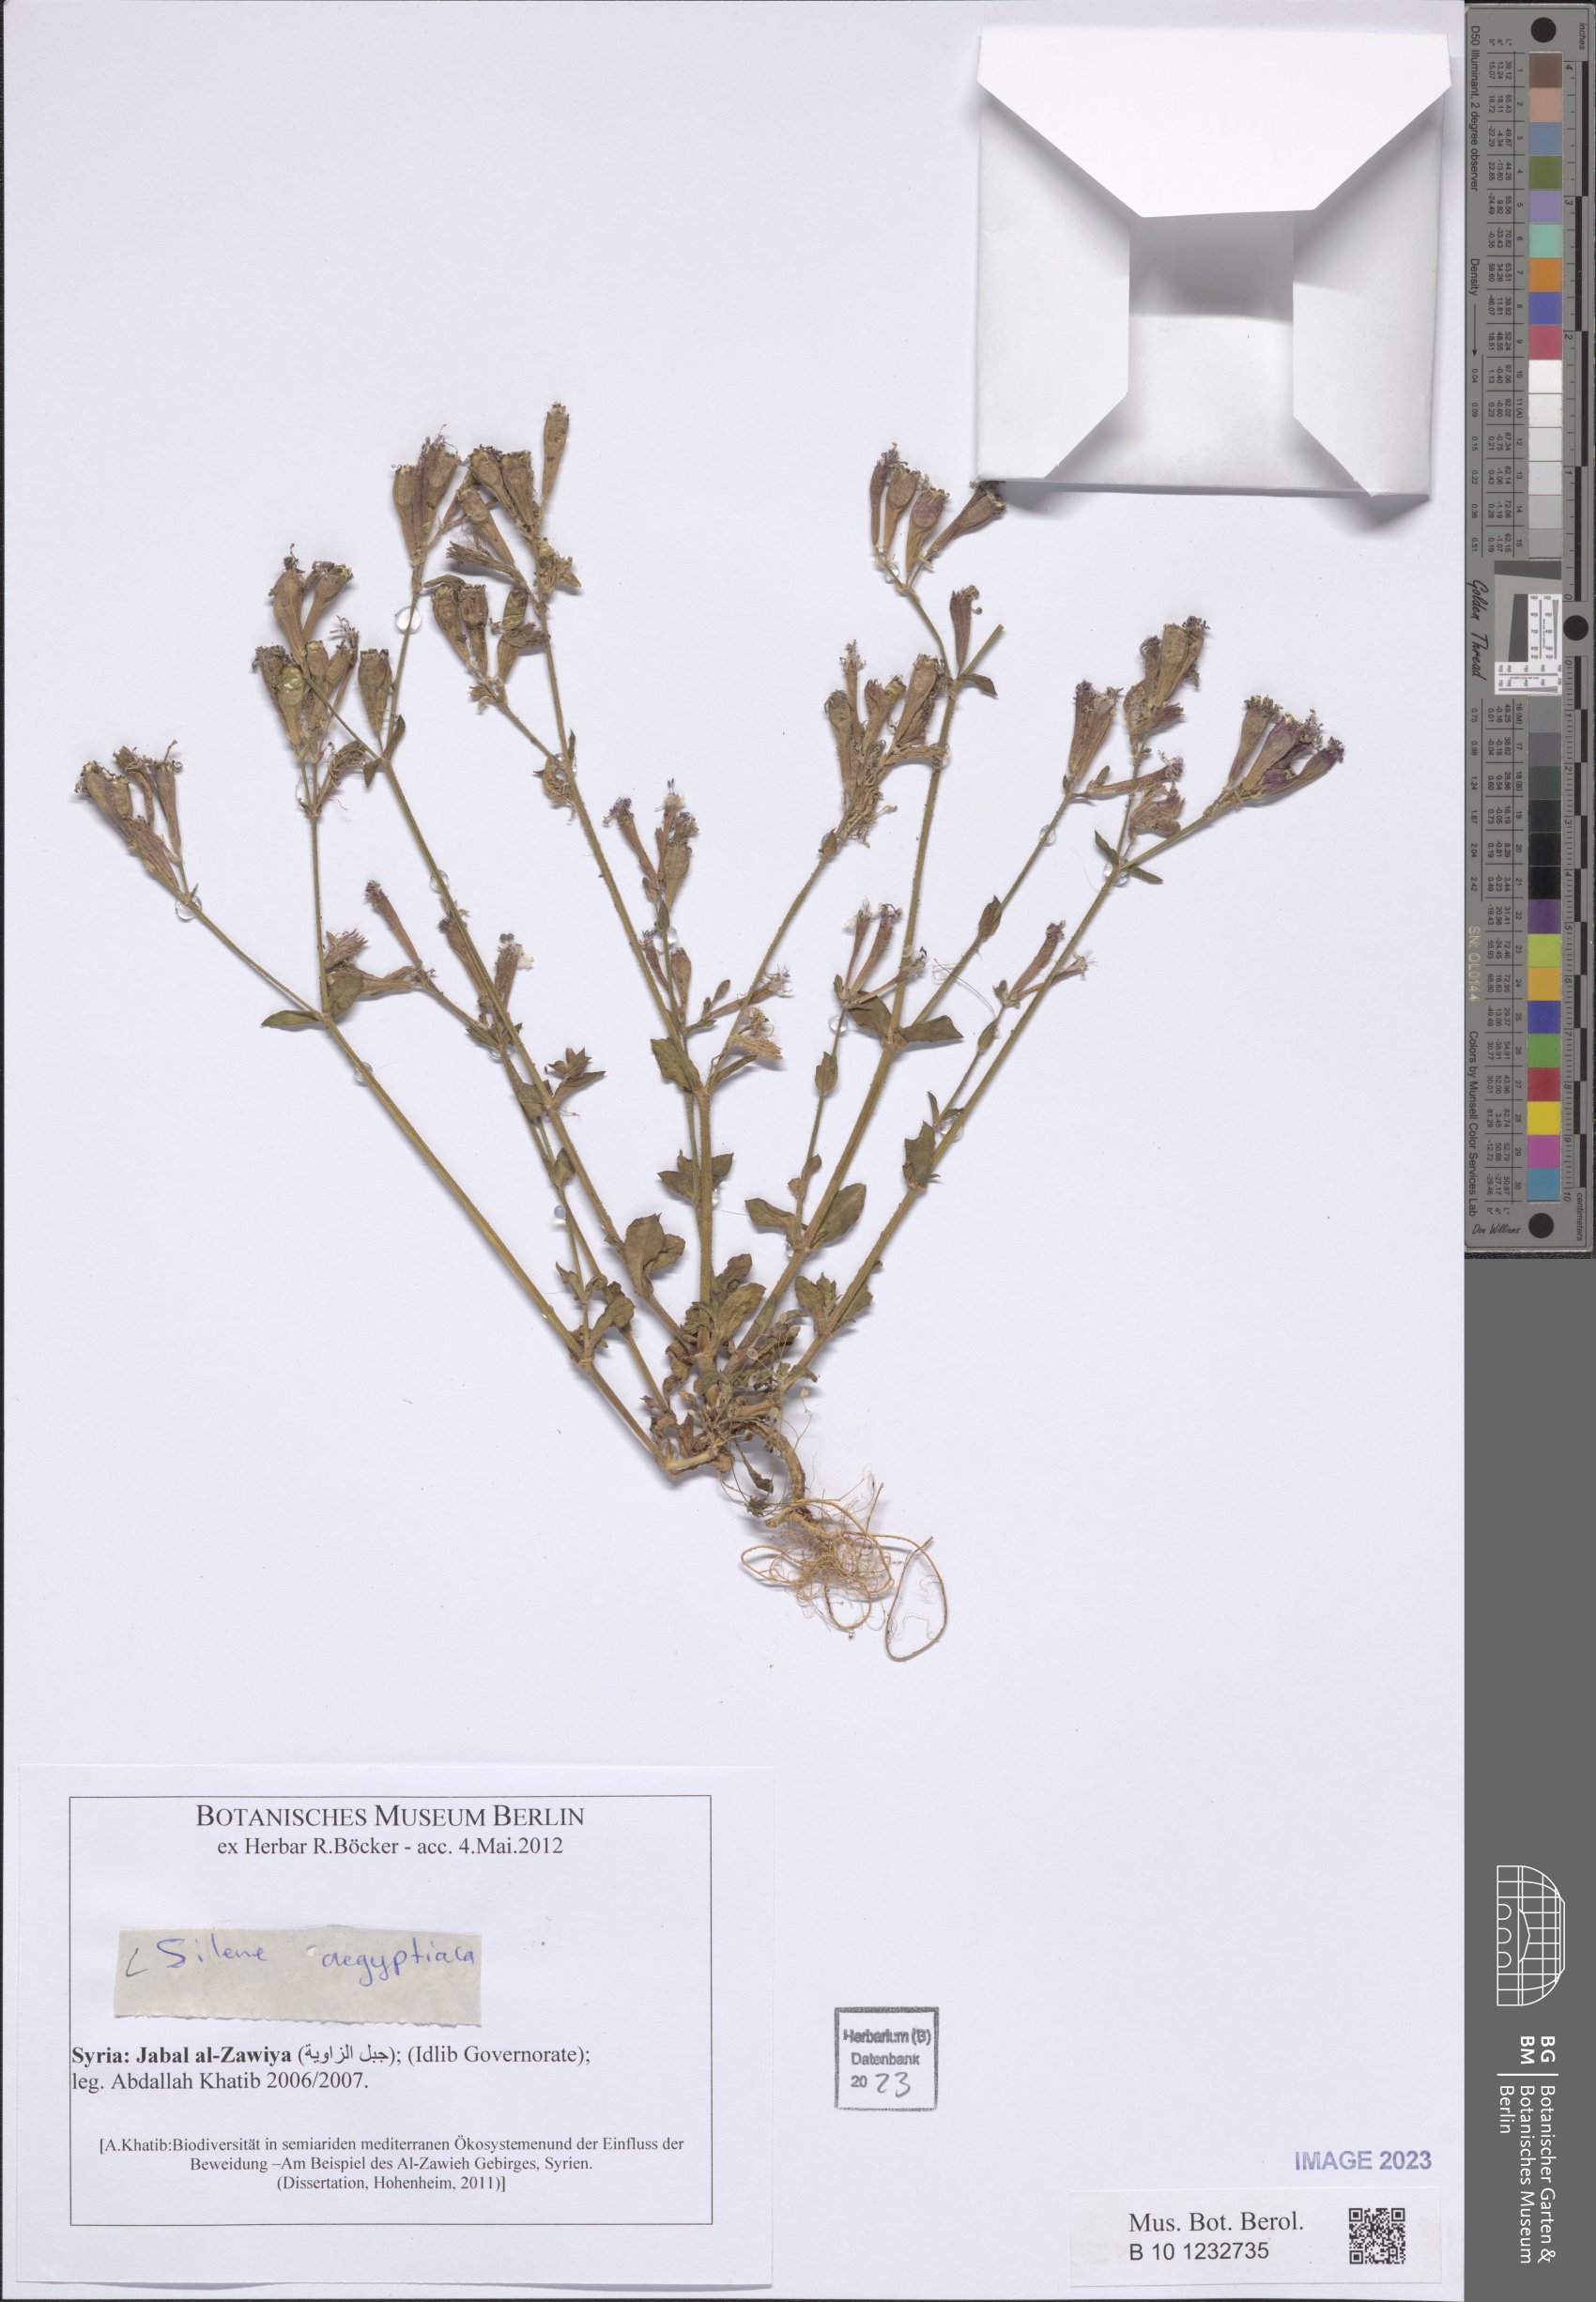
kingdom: Plantae
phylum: Tracheophyta
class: Magnoliopsida
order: Caryophyllales
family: Caryophyllaceae
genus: Silene
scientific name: Silene aegyptiaca
